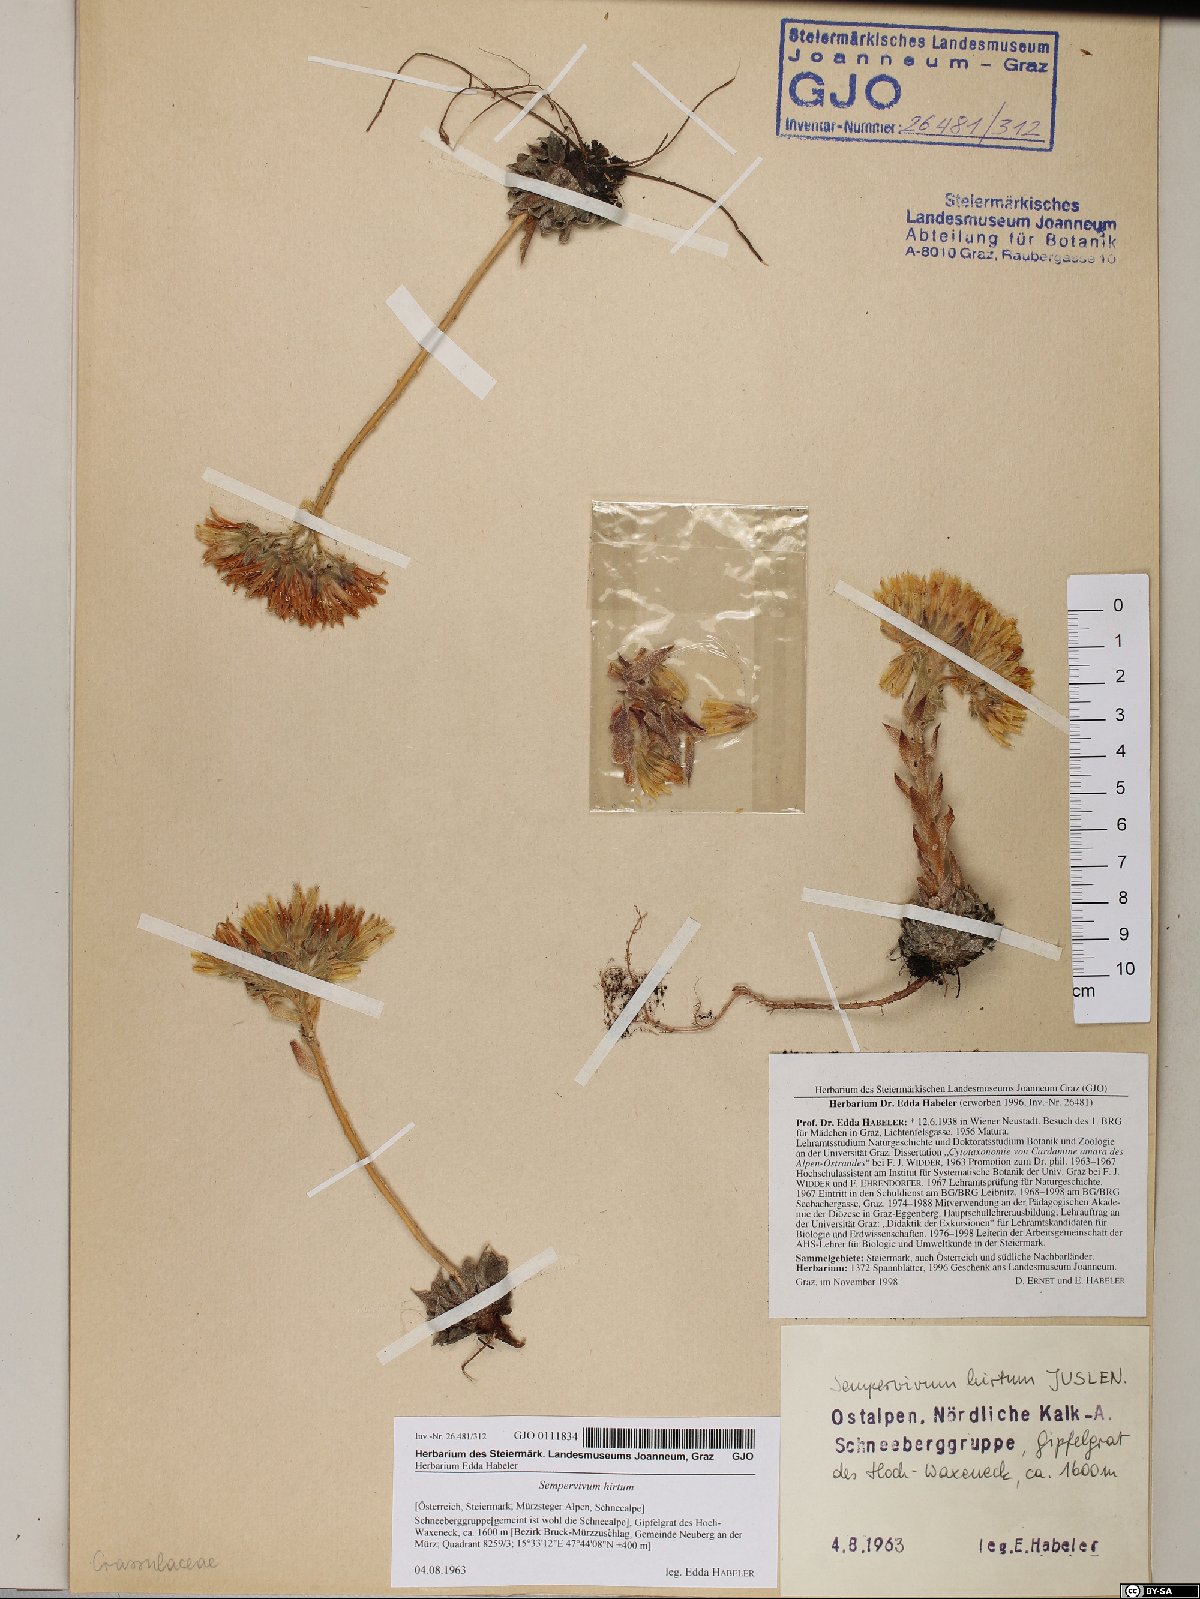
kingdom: Plantae
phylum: Tracheophyta
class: Magnoliopsida
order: Saxifragales
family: Crassulaceae
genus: Sempervivum
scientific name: Sempervivum globiferum
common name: Rolling hen-and-chicks
